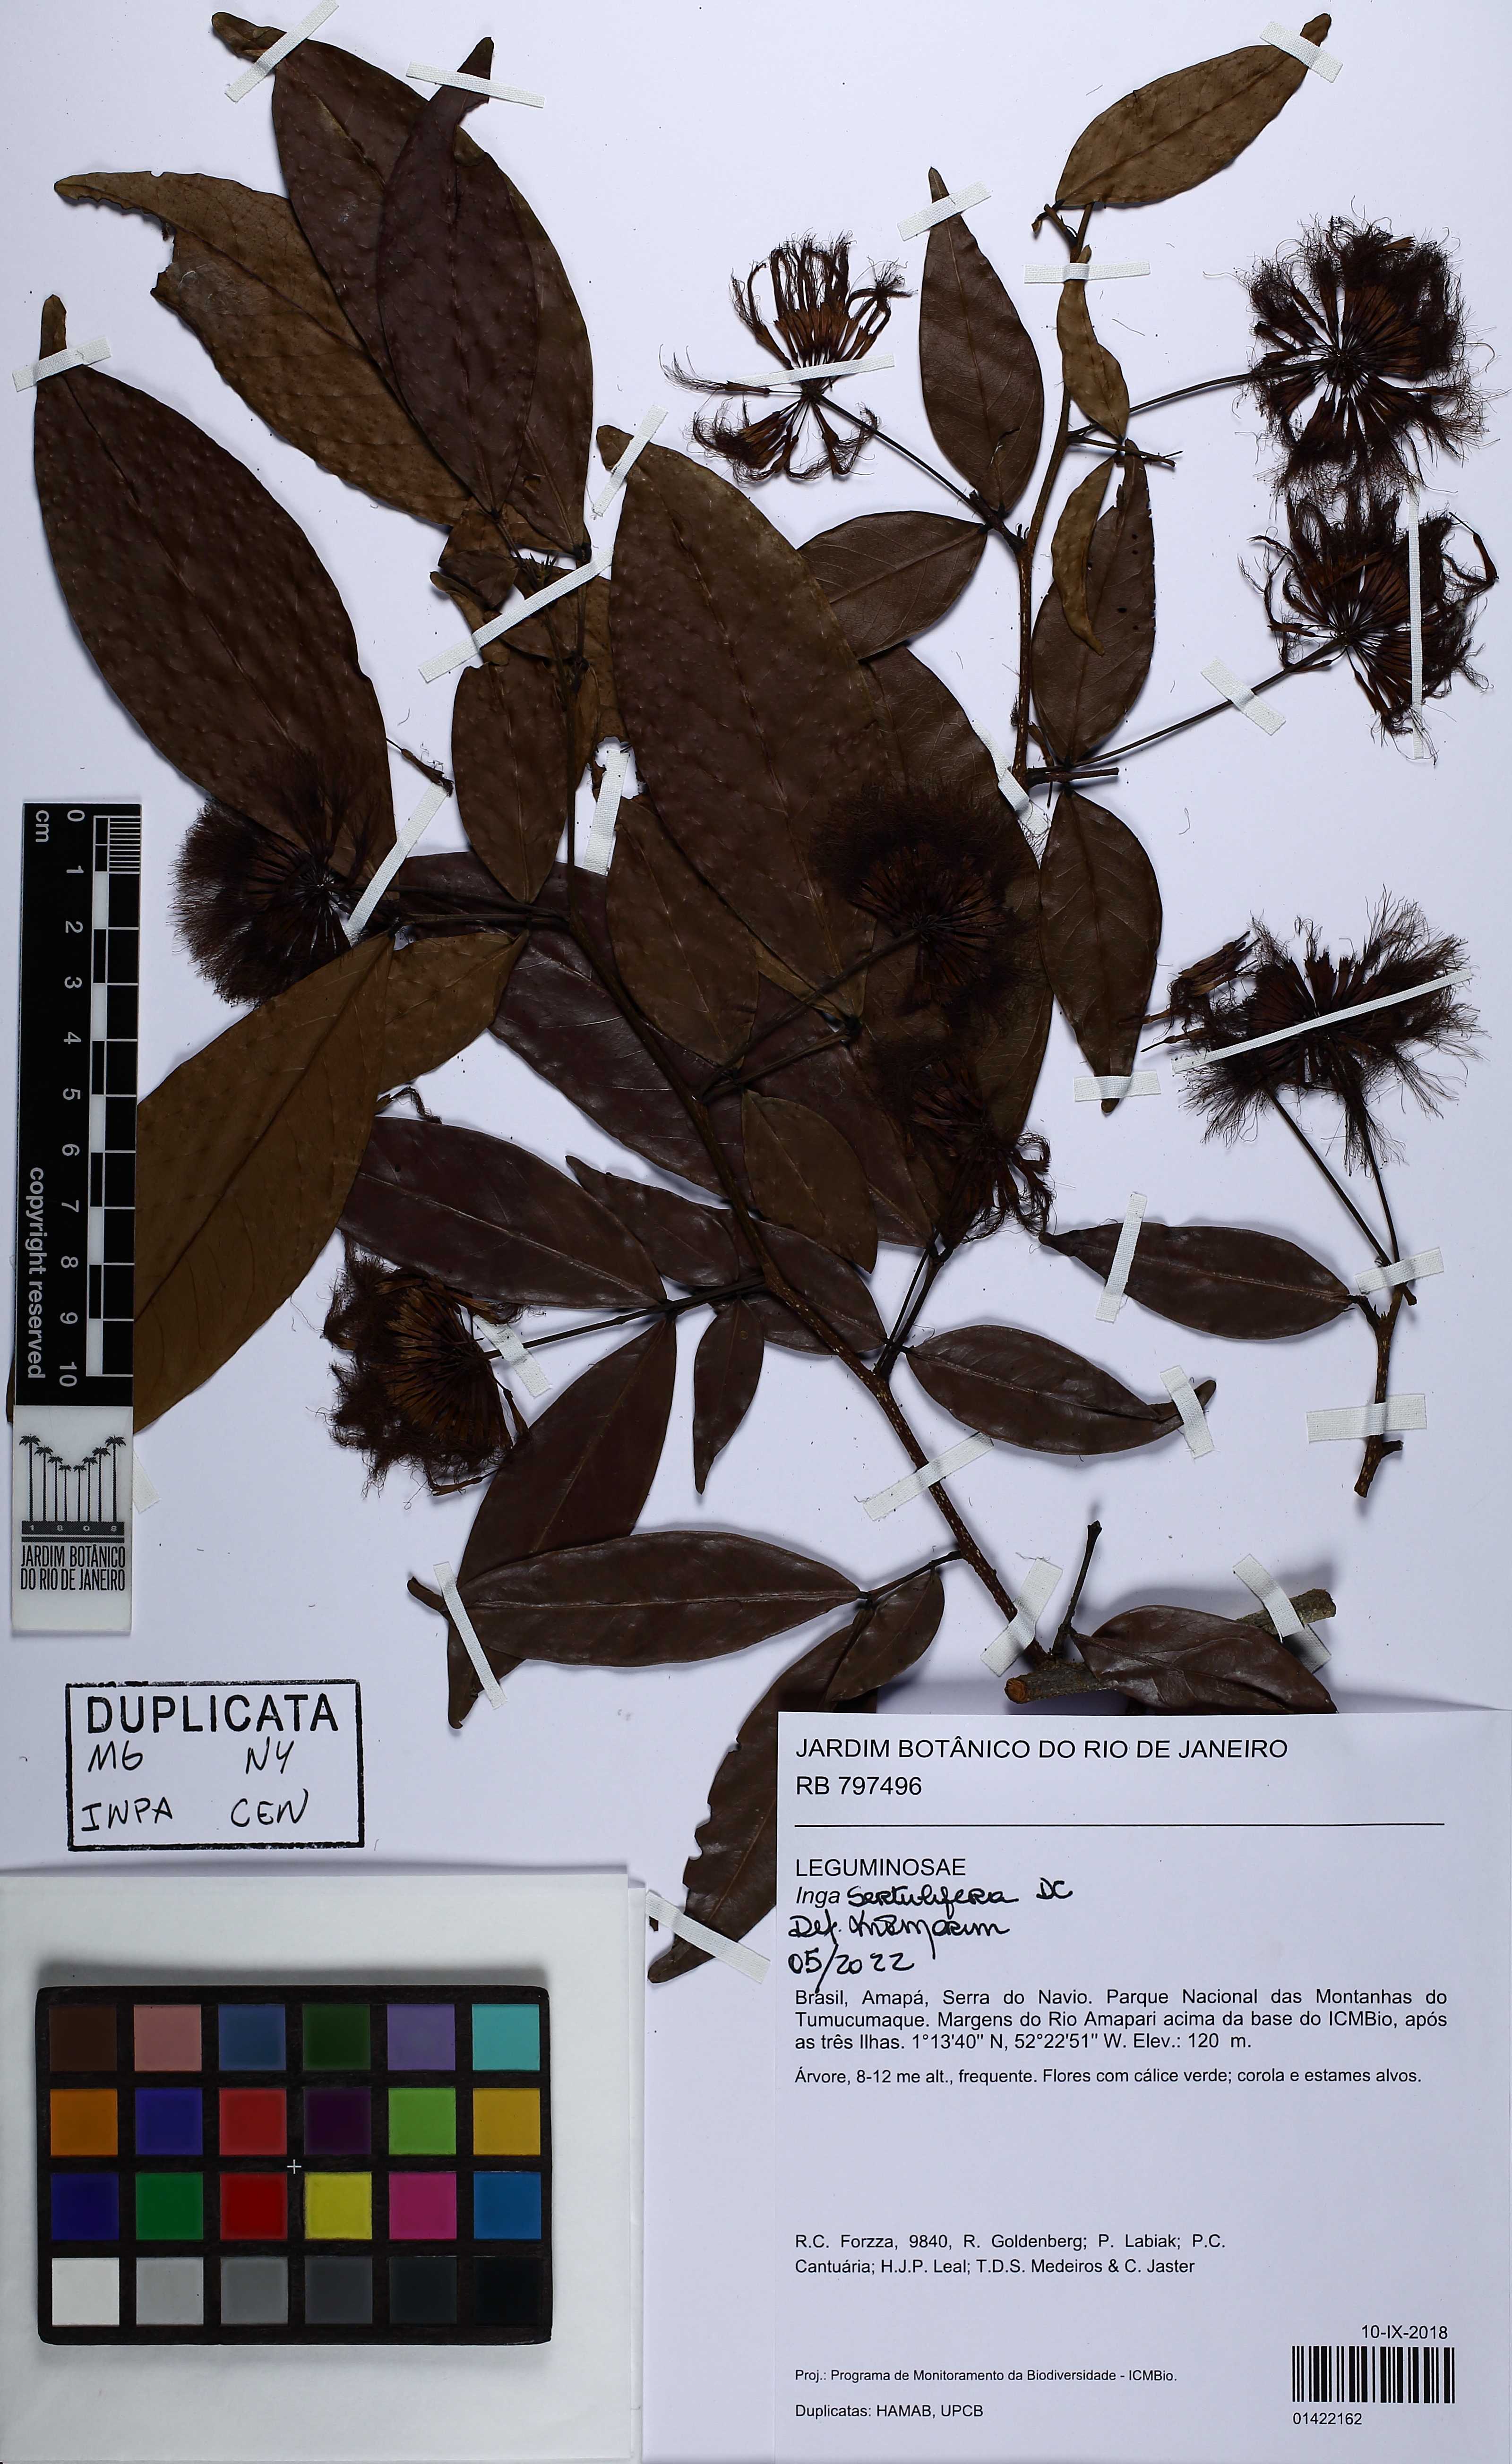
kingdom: Plantae
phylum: Tracheophyta
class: Magnoliopsida
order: Fabales
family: Fabaceae
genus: Inga
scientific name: Inga sertulifera
